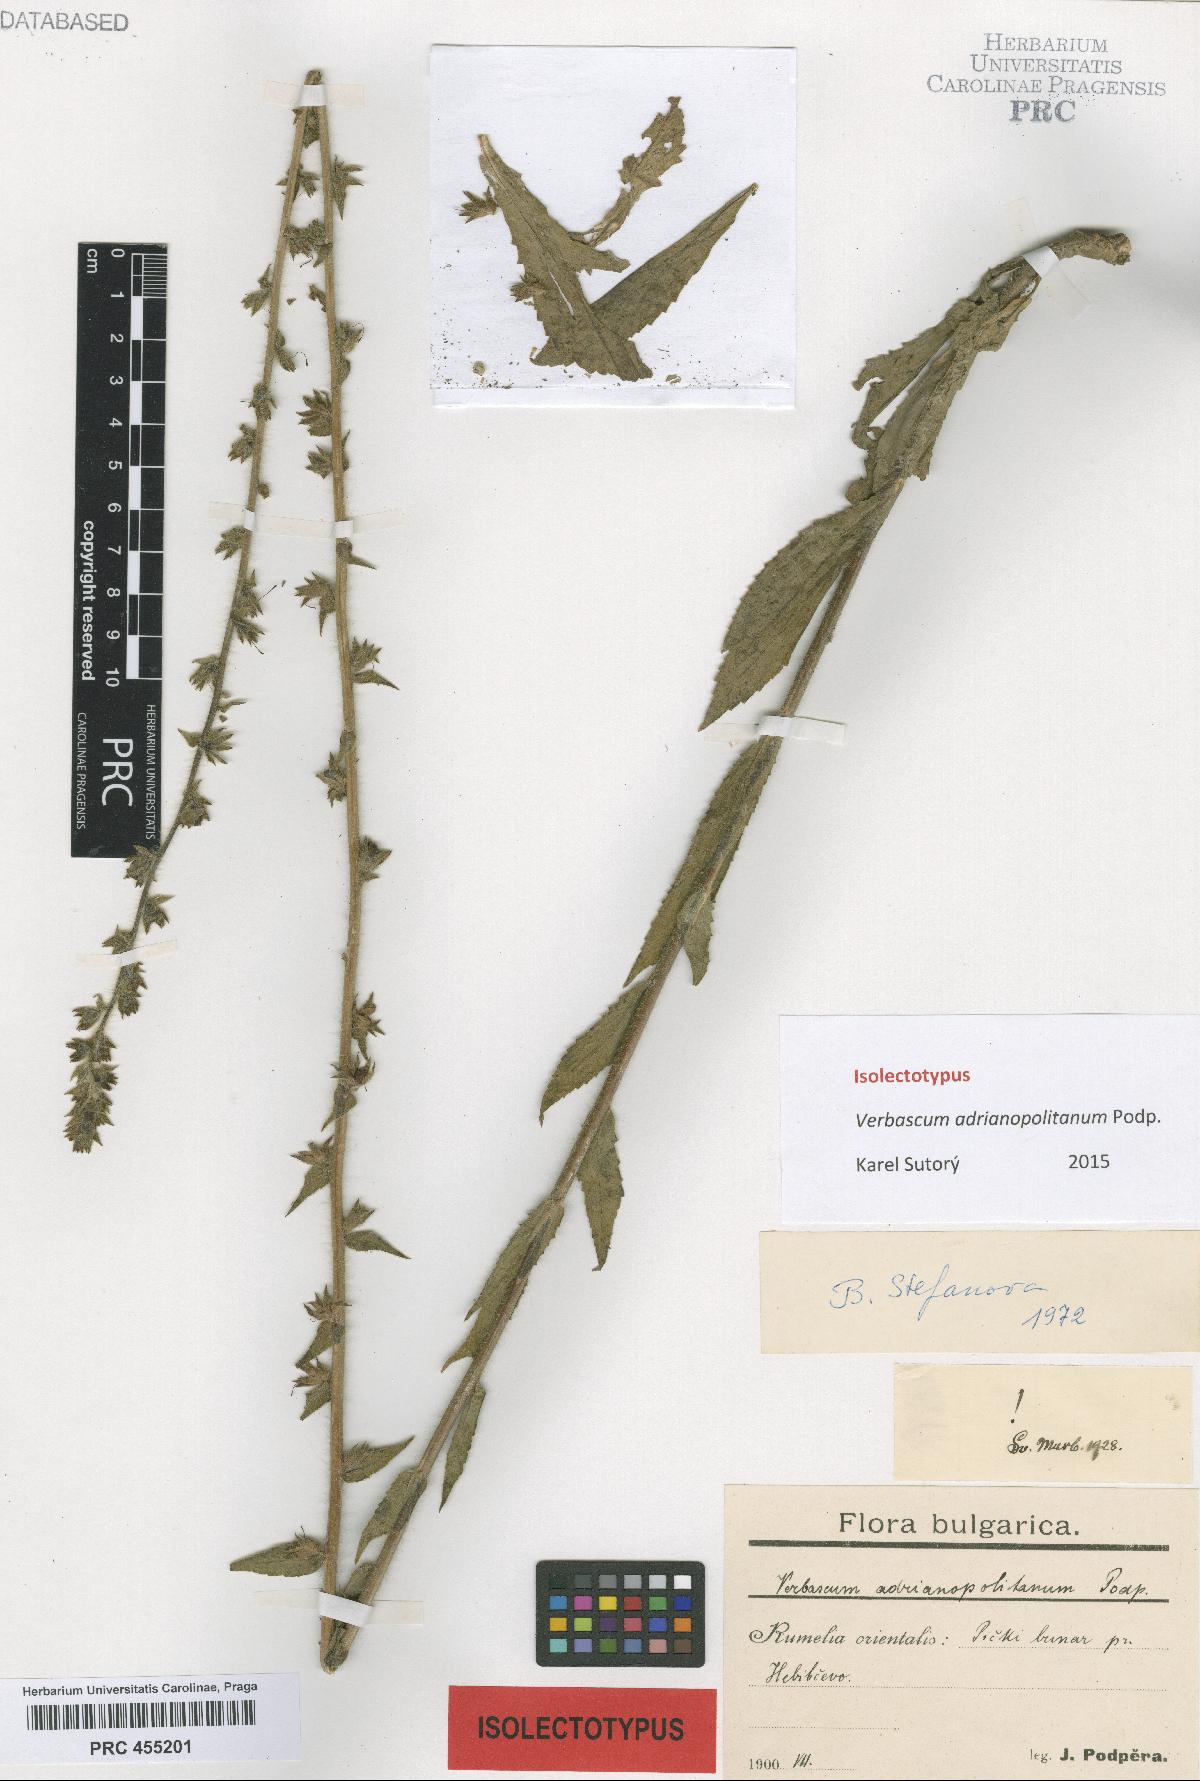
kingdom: Plantae
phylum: Tracheophyta
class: Magnoliopsida
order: Lamiales
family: Scrophulariaceae
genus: Verbascum
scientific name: Verbascum adrianopolitanum
